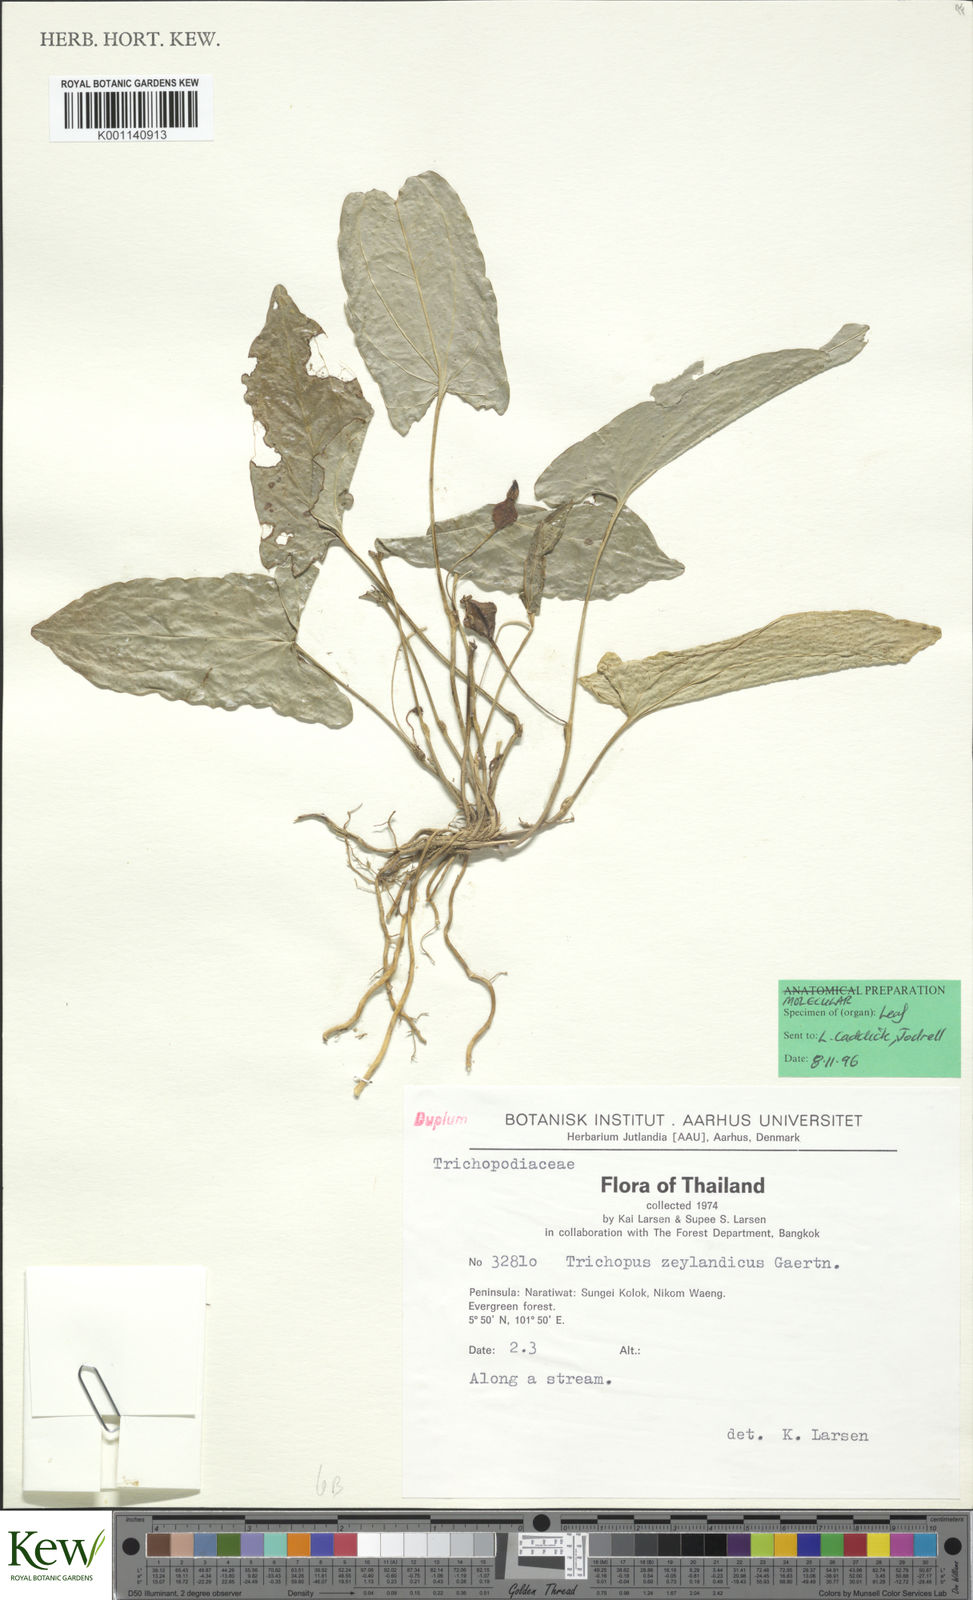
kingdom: Plantae
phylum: Tracheophyta
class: Liliopsida
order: Dioscoreales
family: Dioscoreaceae
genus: Trichopus
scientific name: Trichopus zeylanicus
